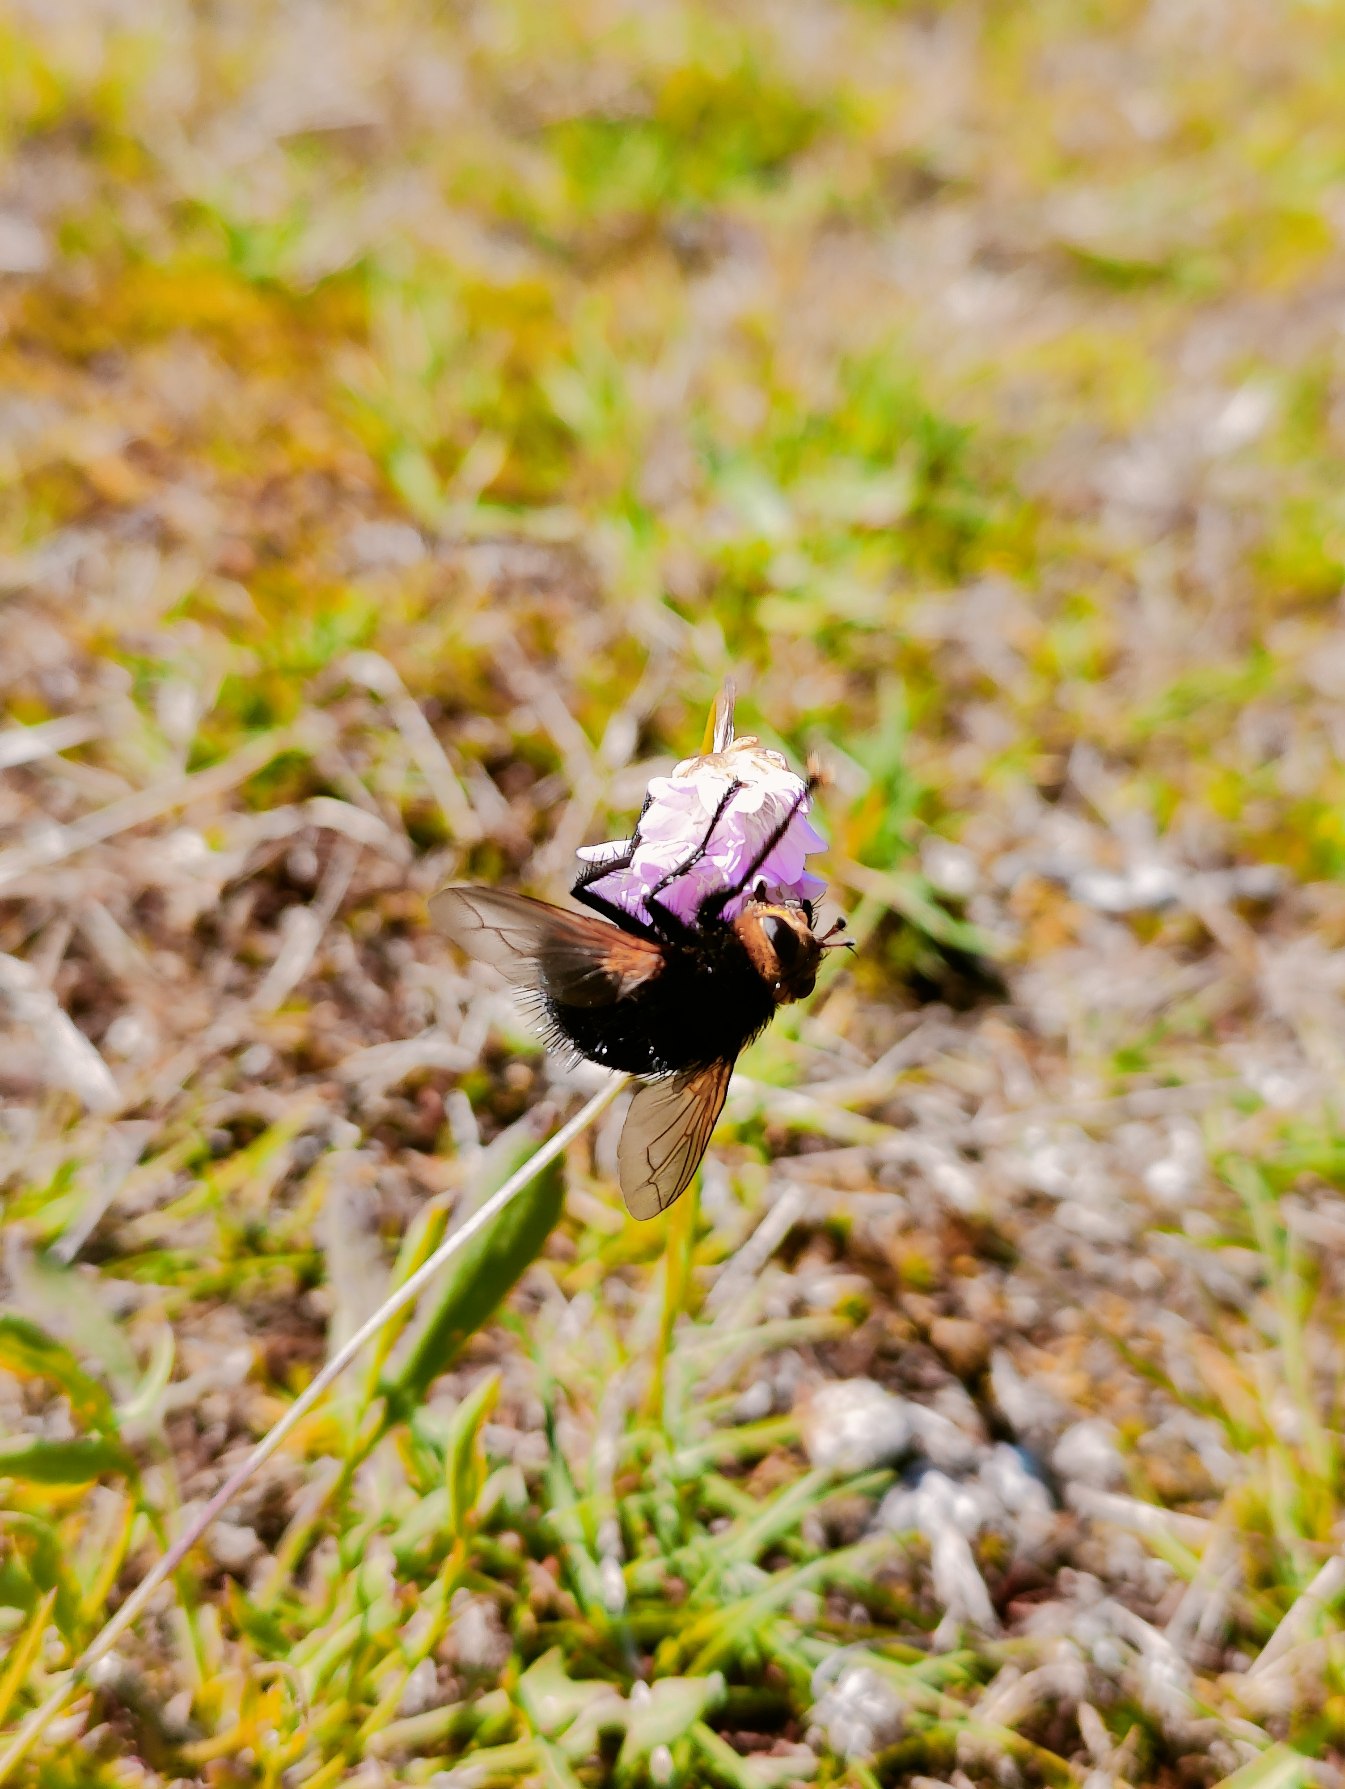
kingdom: Animalia
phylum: Arthropoda
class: Insecta
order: Diptera
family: Tachinidae
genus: Tachina
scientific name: Tachina grossa
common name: Kæmpefluen Harald
